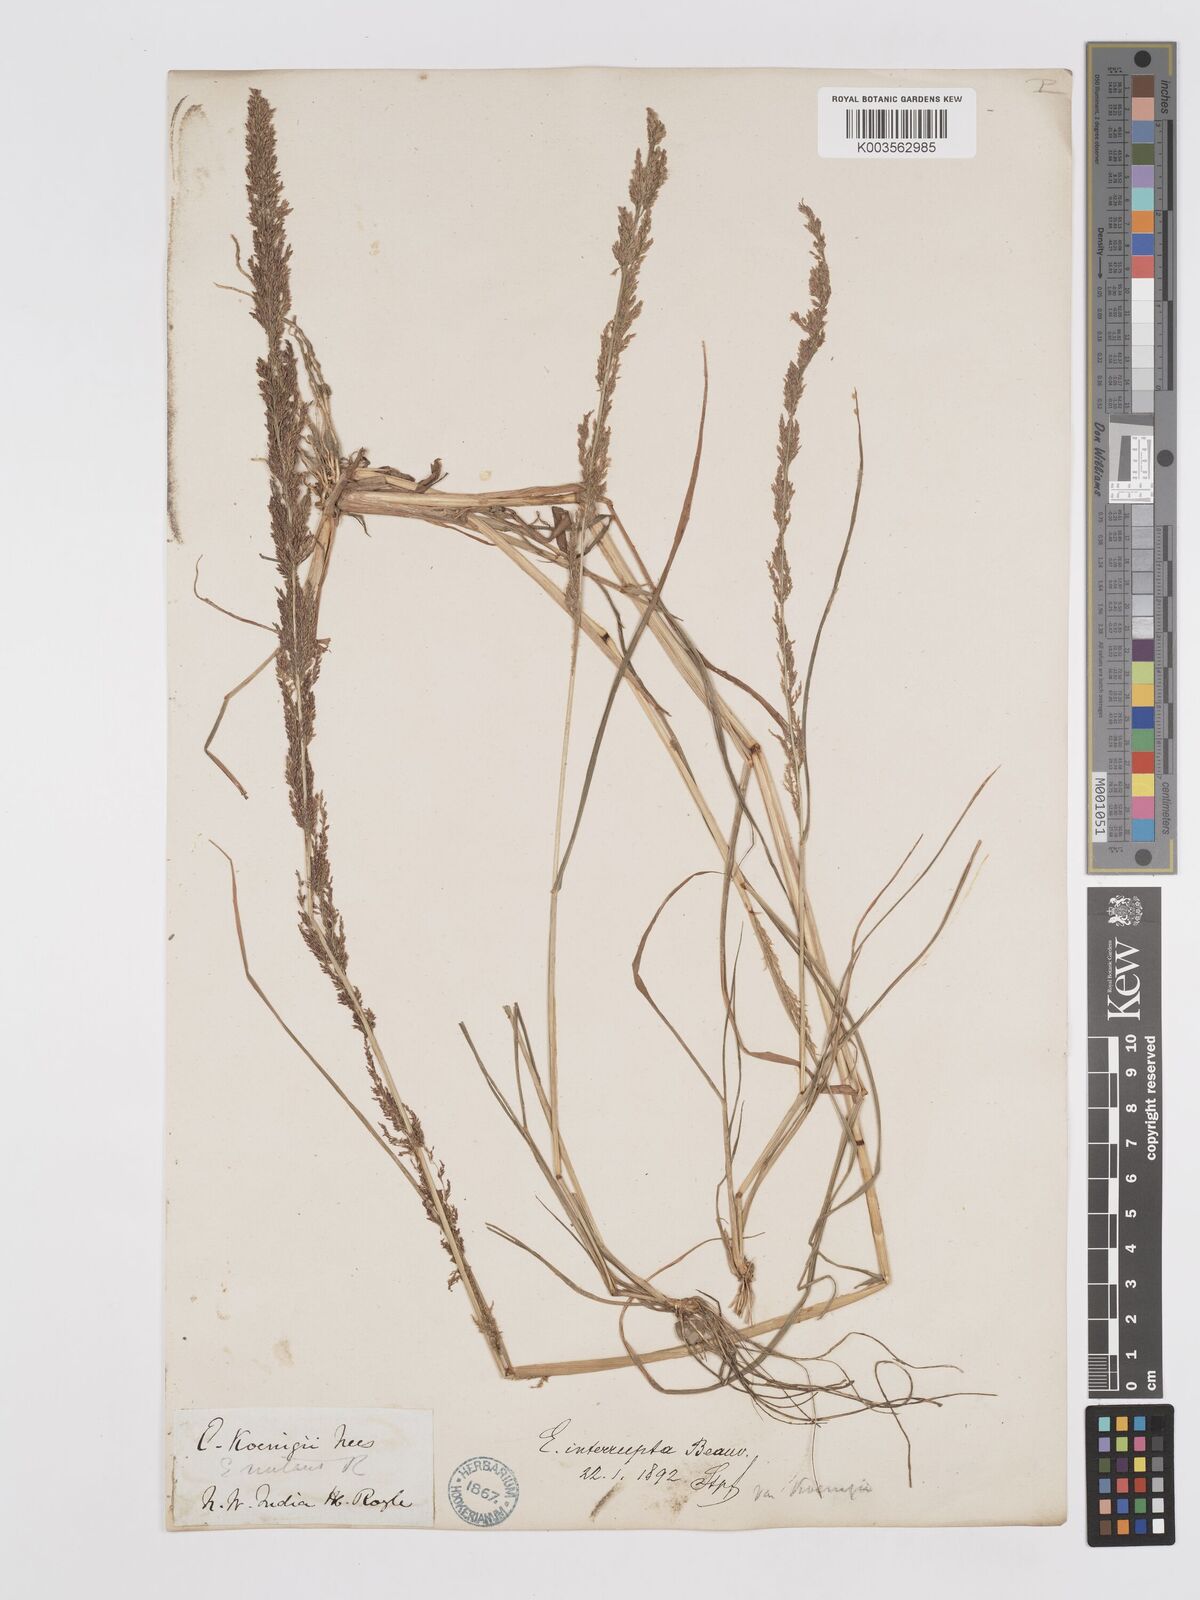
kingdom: Plantae
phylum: Tracheophyta
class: Liliopsida
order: Poales
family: Poaceae
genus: Eragrostis
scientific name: Eragrostis japonica
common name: Pond lovegrass
